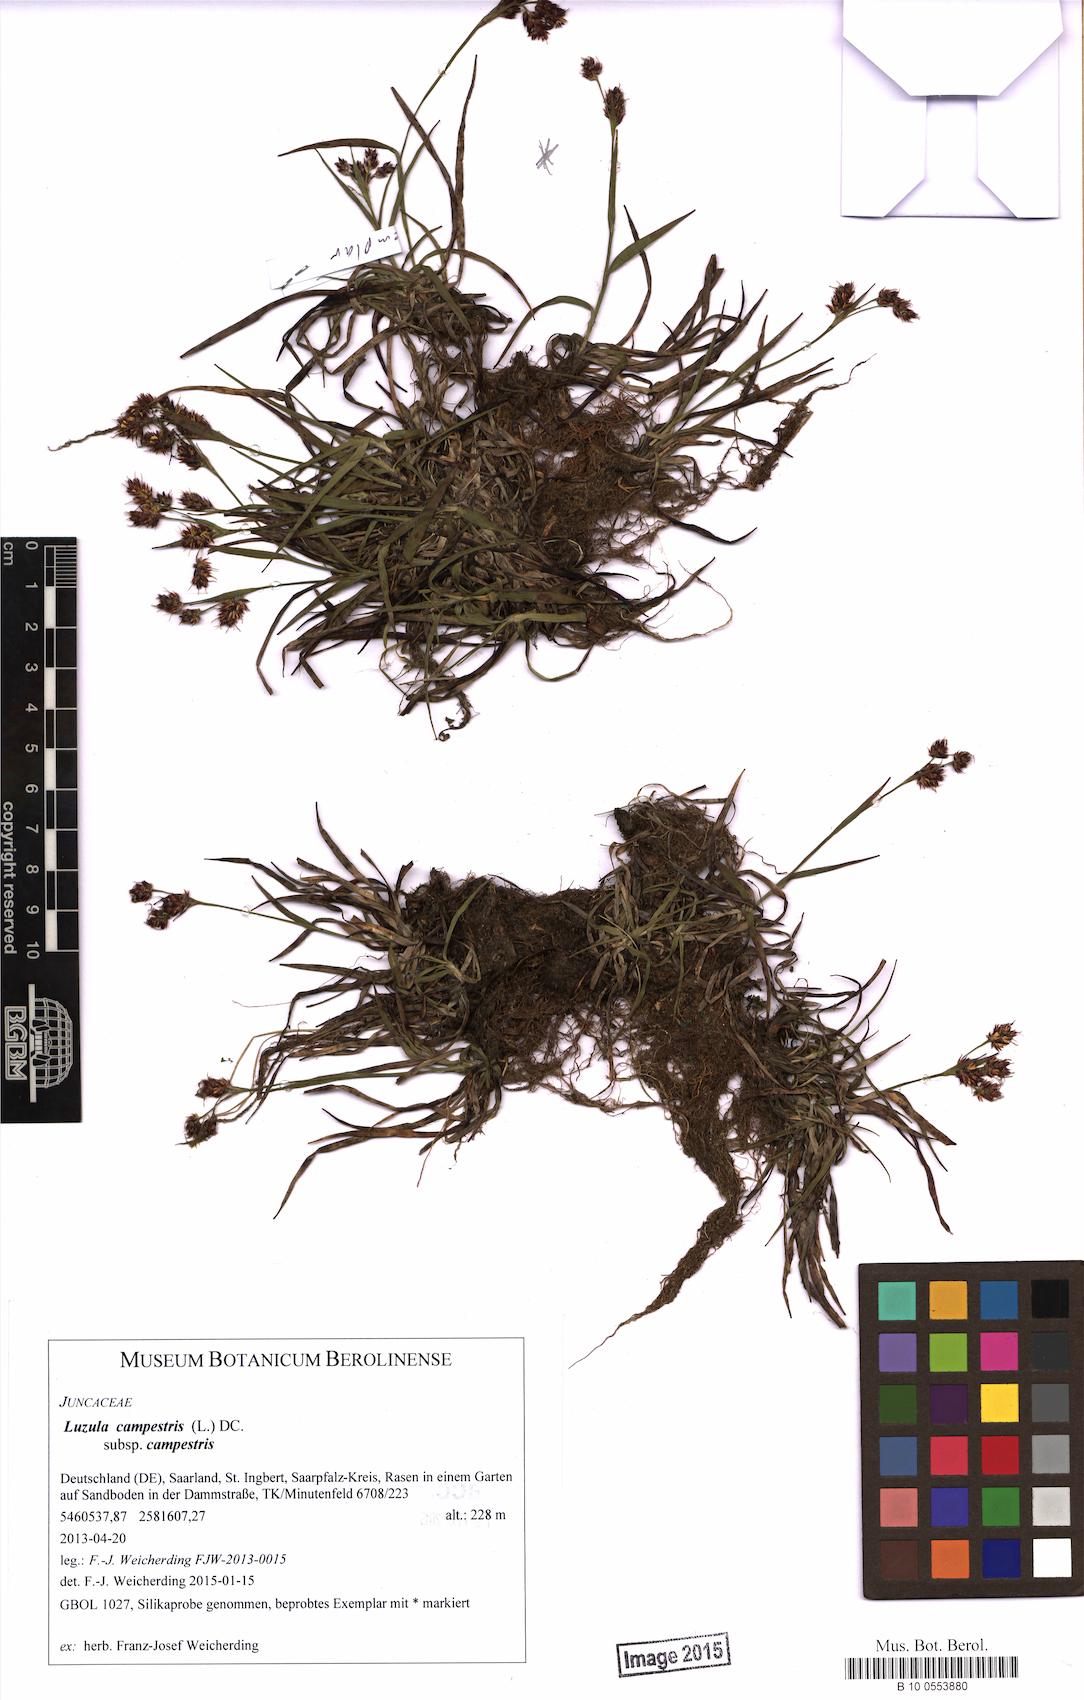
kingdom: Plantae
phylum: Tracheophyta
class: Liliopsida
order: Poales
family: Juncaceae
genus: Luzula
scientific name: Luzula campestris
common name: Field wood-rush
